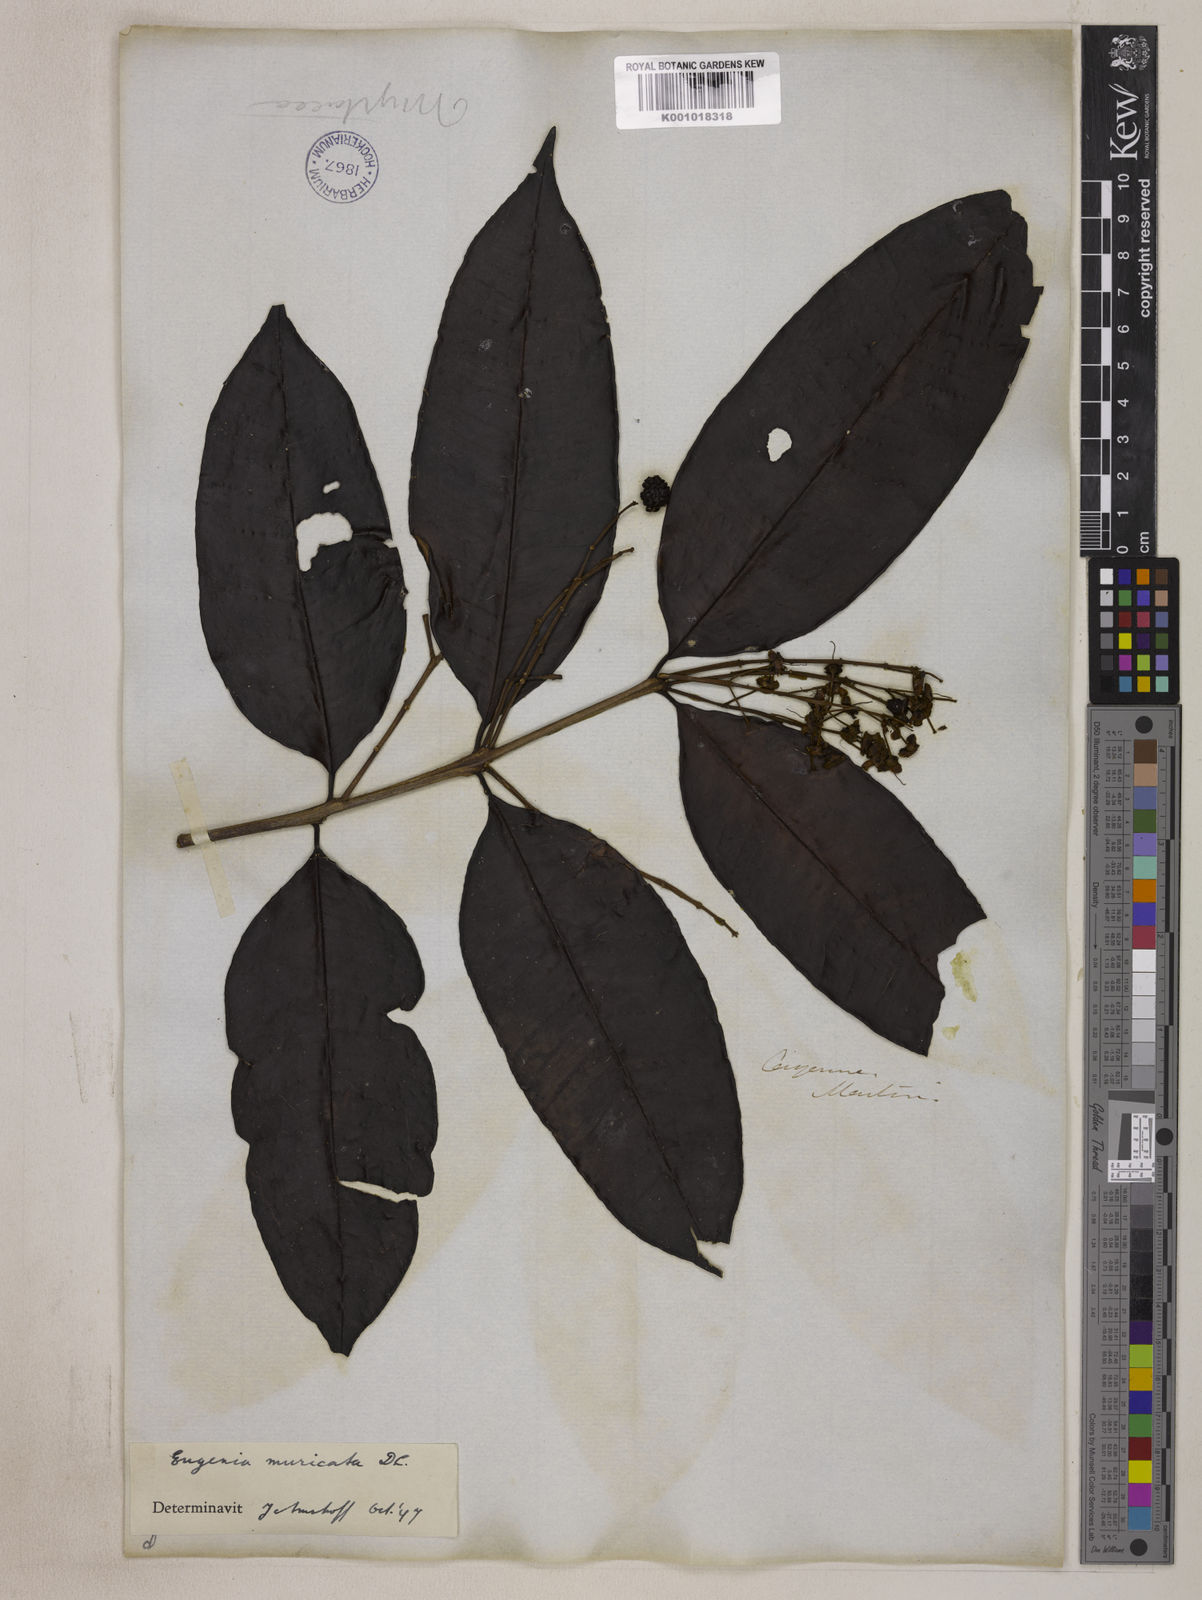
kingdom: Plantae
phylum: Tracheophyta
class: Magnoliopsida
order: Myrtales
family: Myrtaceae
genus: Eugenia
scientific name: Eugenia muricata
